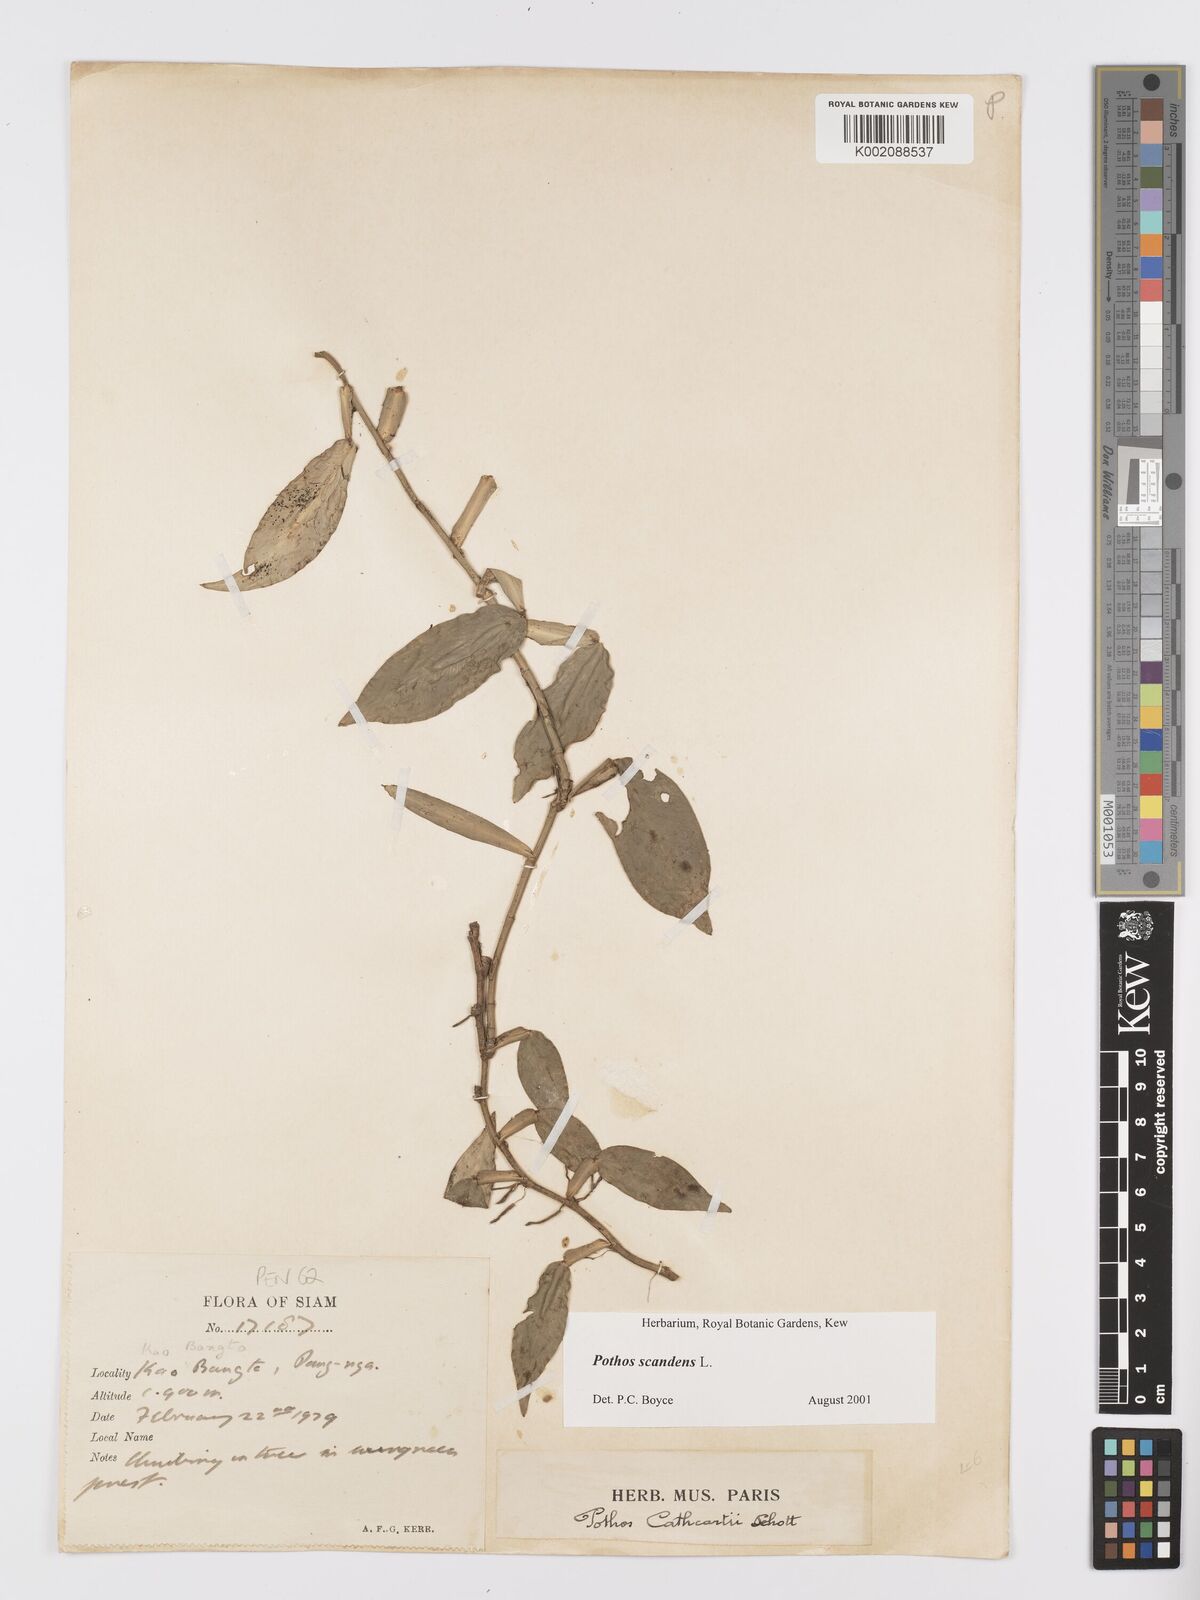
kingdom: Plantae
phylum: Tracheophyta
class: Liliopsida
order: Alismatales
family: Araceae
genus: Pothos
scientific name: Pothos scandens
